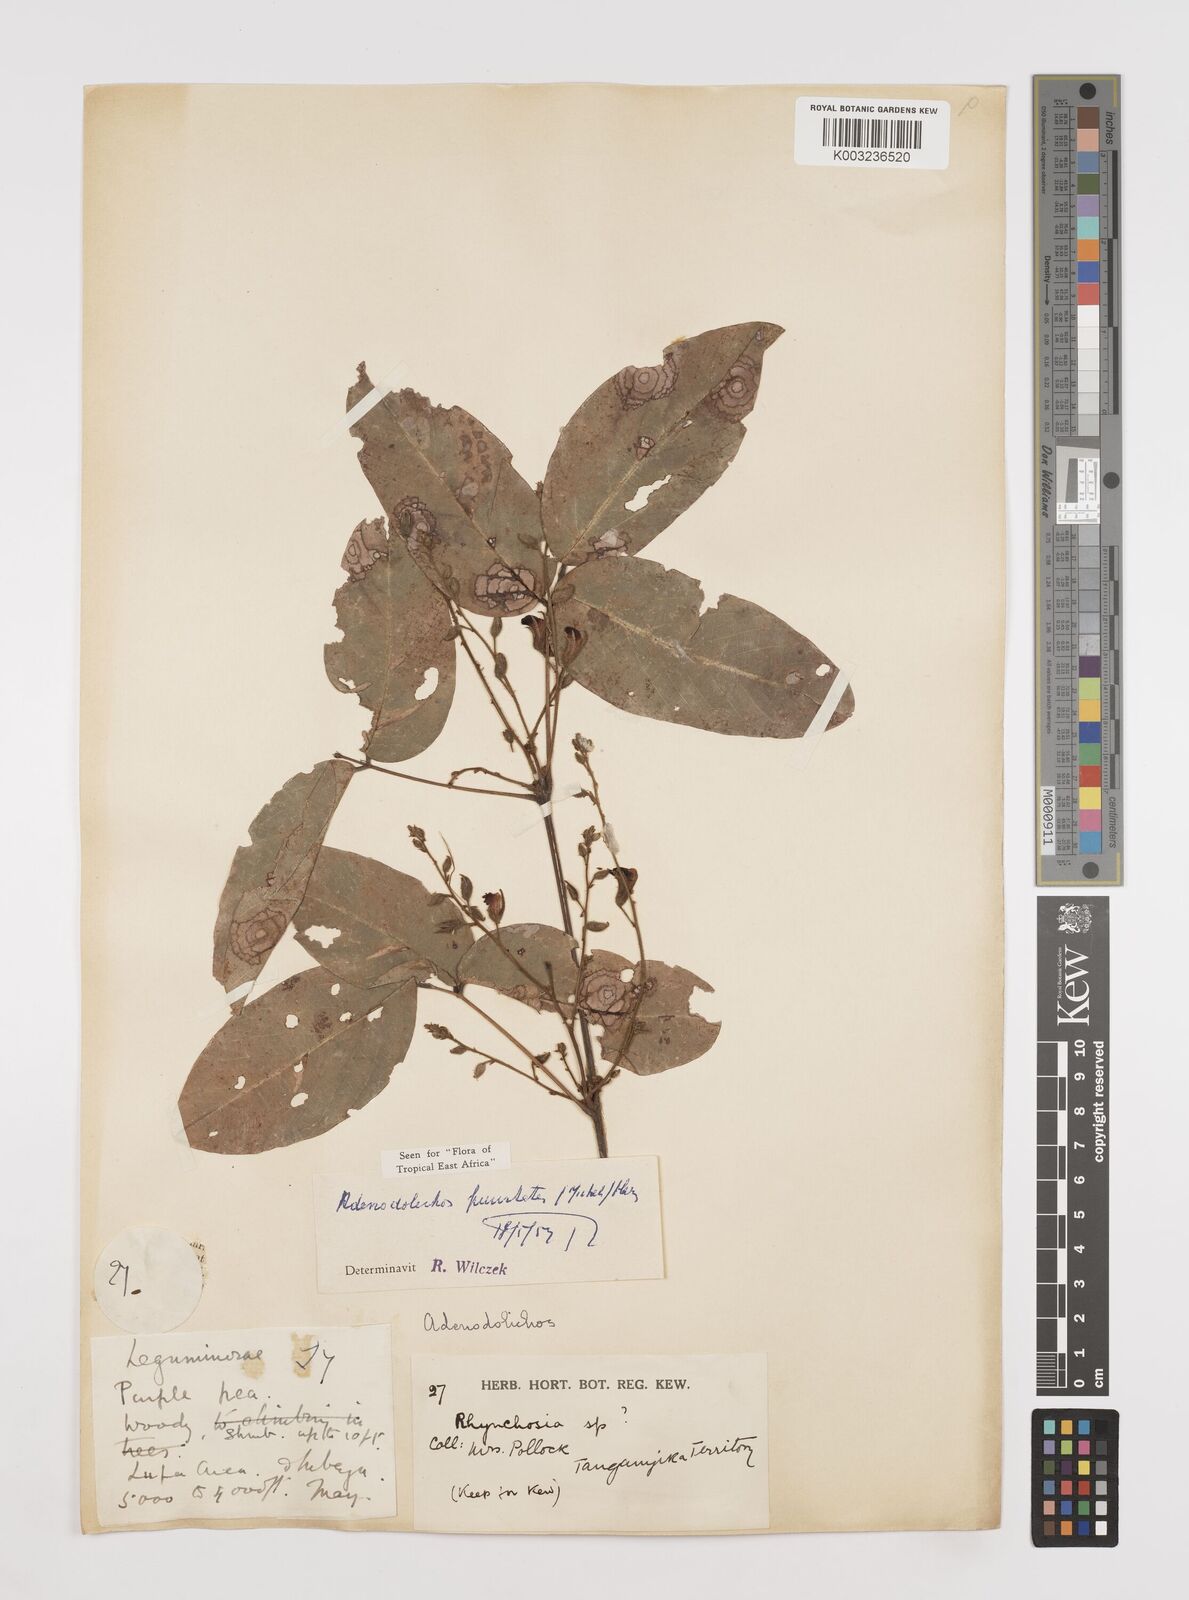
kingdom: Plantae
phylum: Tracheophyta
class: Magnoliopsida
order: Fabales
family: Fabaceae
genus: Adenodolichos
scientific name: Adenodolichos punctatus
